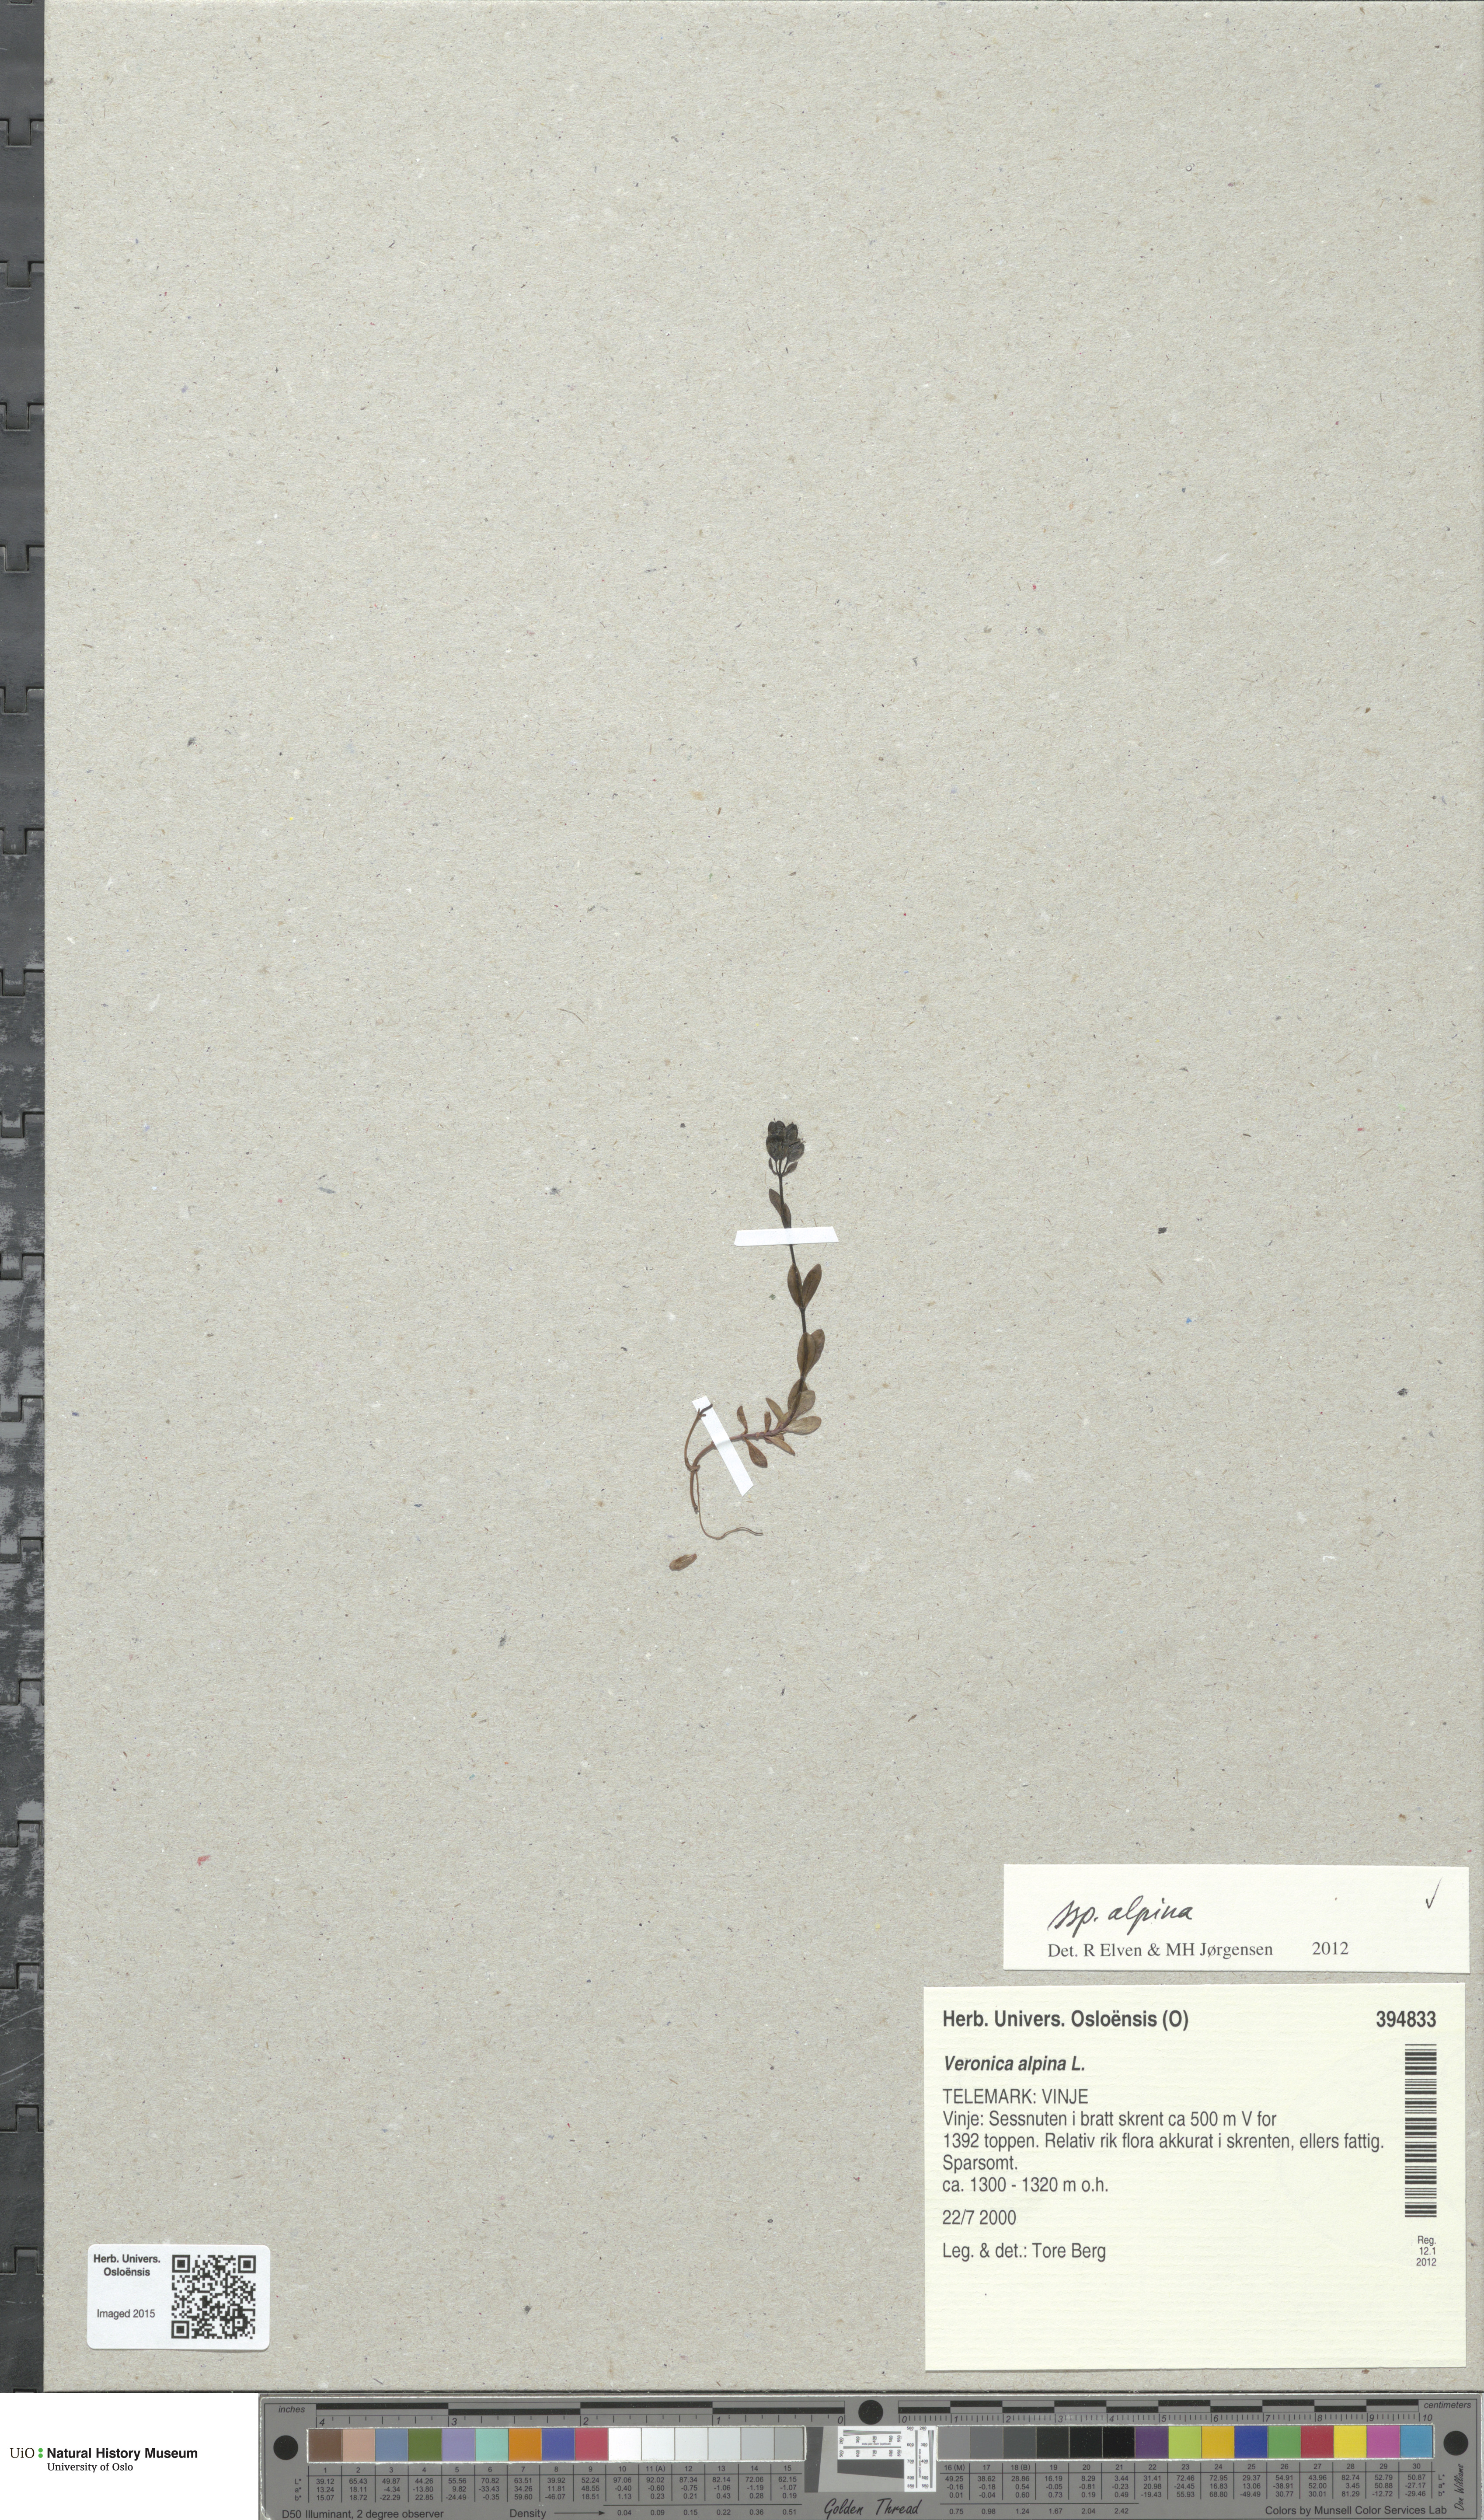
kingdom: Plantae
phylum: Tracheophyta
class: Magnoliopsida
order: Lamiales
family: Plantaginaceae
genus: Veronica
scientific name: Veronica alpina
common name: Alpine speedwell
